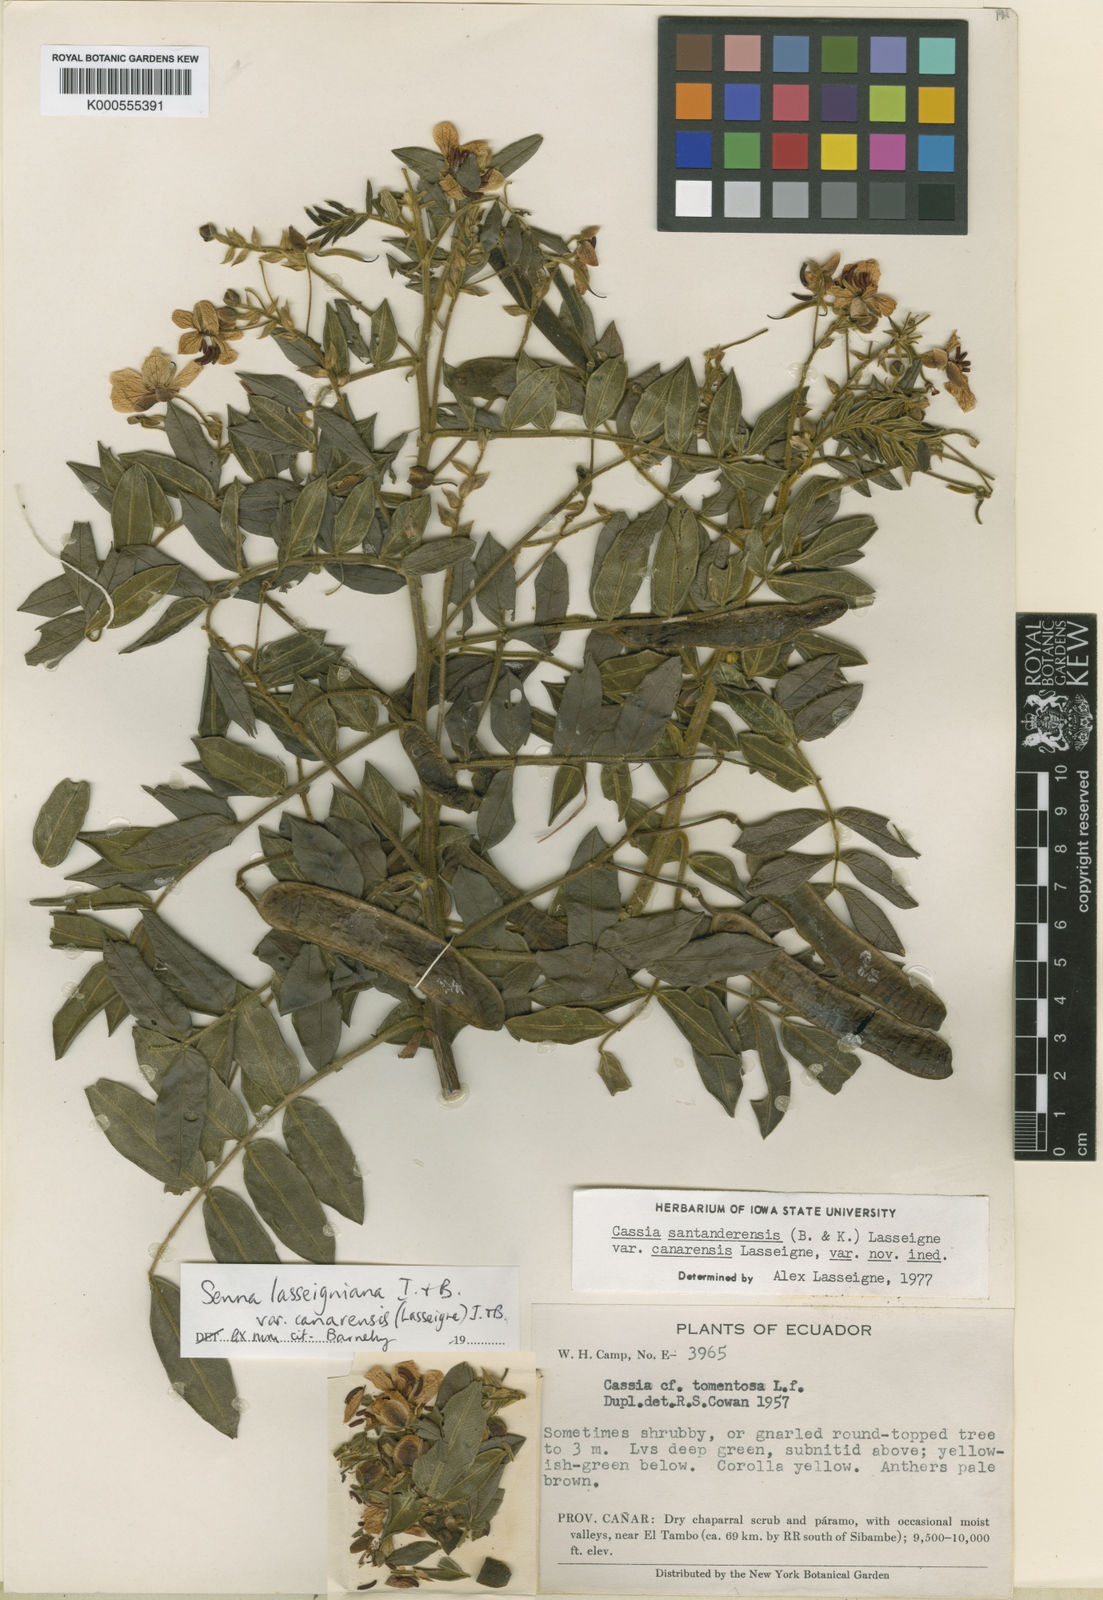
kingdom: Plantae
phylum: Tracheophyta
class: Magnoliopsida
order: Fabales
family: Fabaceae
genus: Senna
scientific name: Senna lasseigniana
